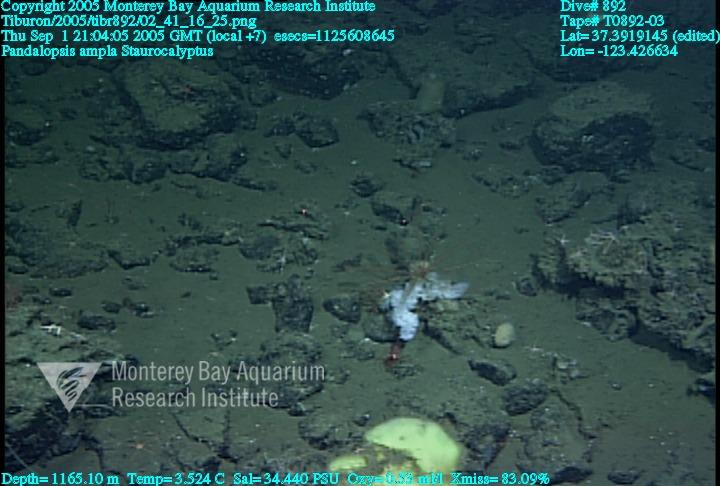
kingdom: Animalia
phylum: Porifera
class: Hexactinellida
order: Lyssacinosida
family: Rossellidae
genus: Staurocalyptus
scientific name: Staurocalyptus
